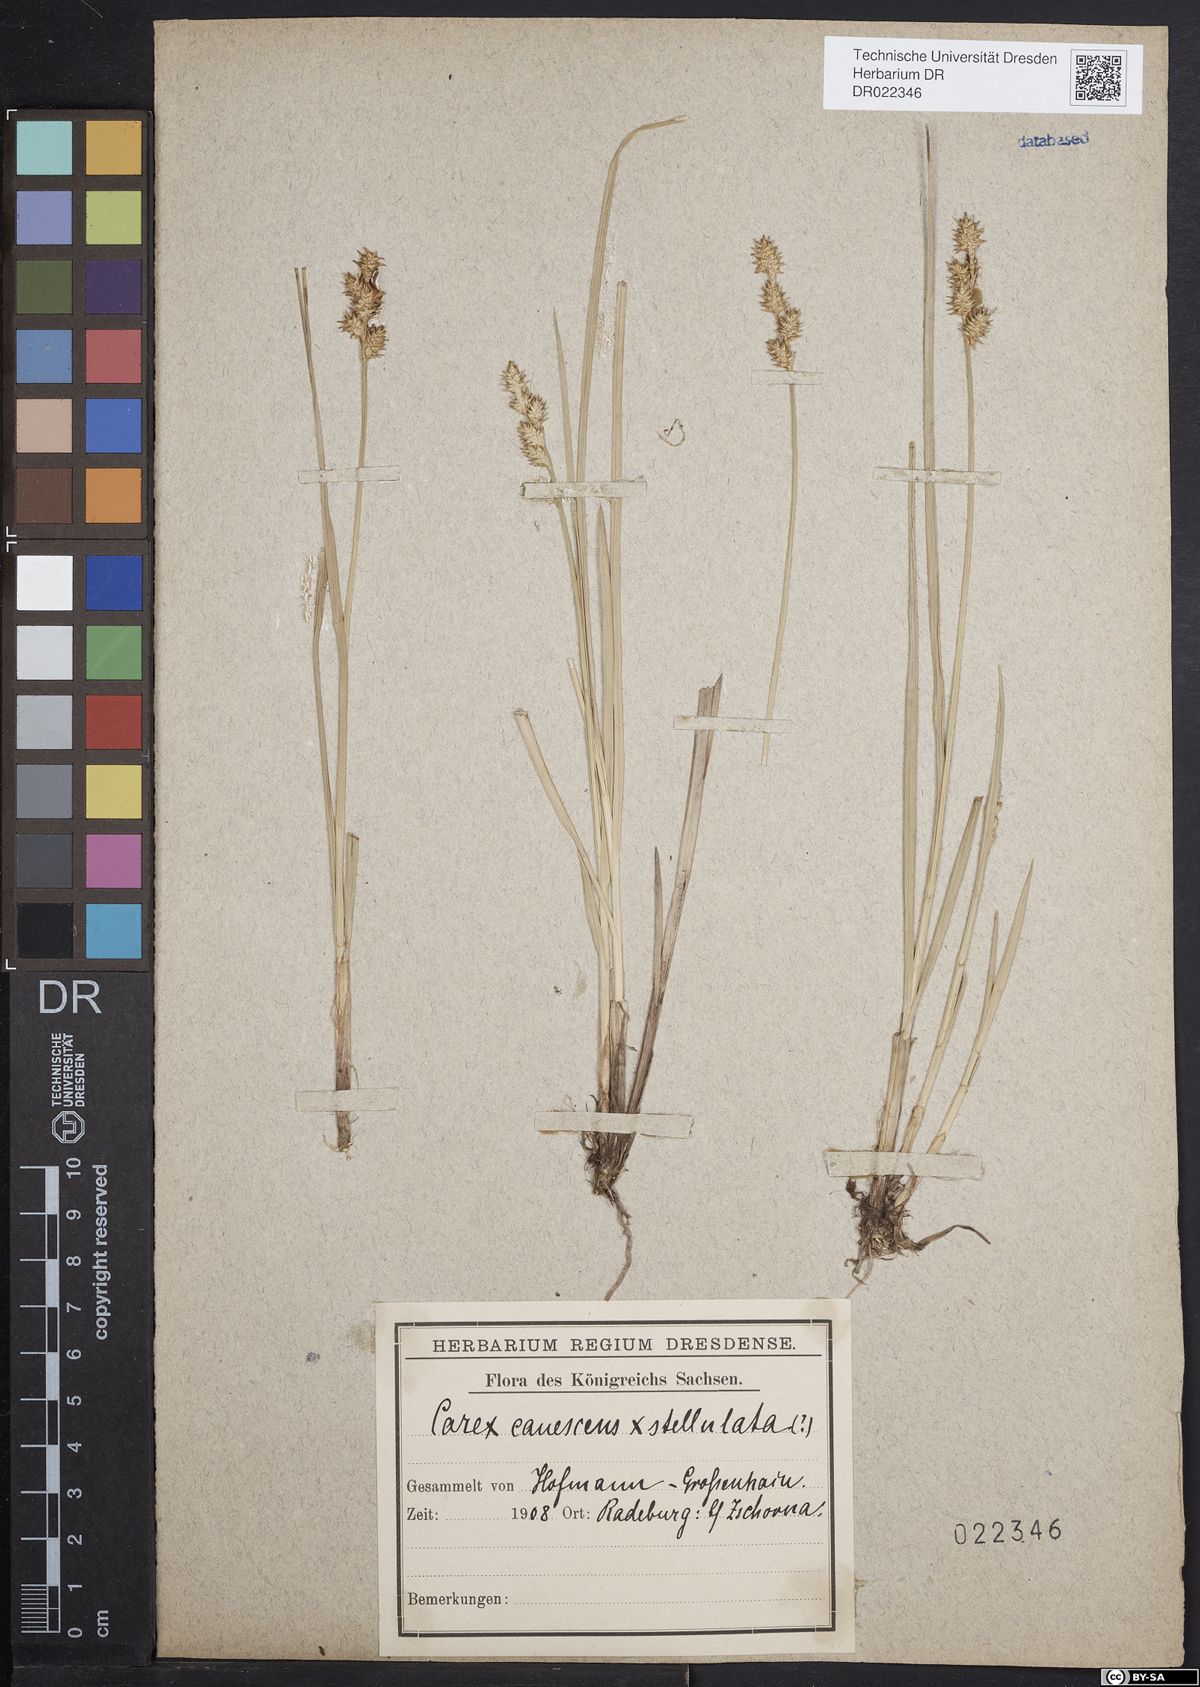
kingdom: Plantae
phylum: Tracheophyta
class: Liliopsida
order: Poales
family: Cyperaceae
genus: Carex
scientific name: Carex biharica
